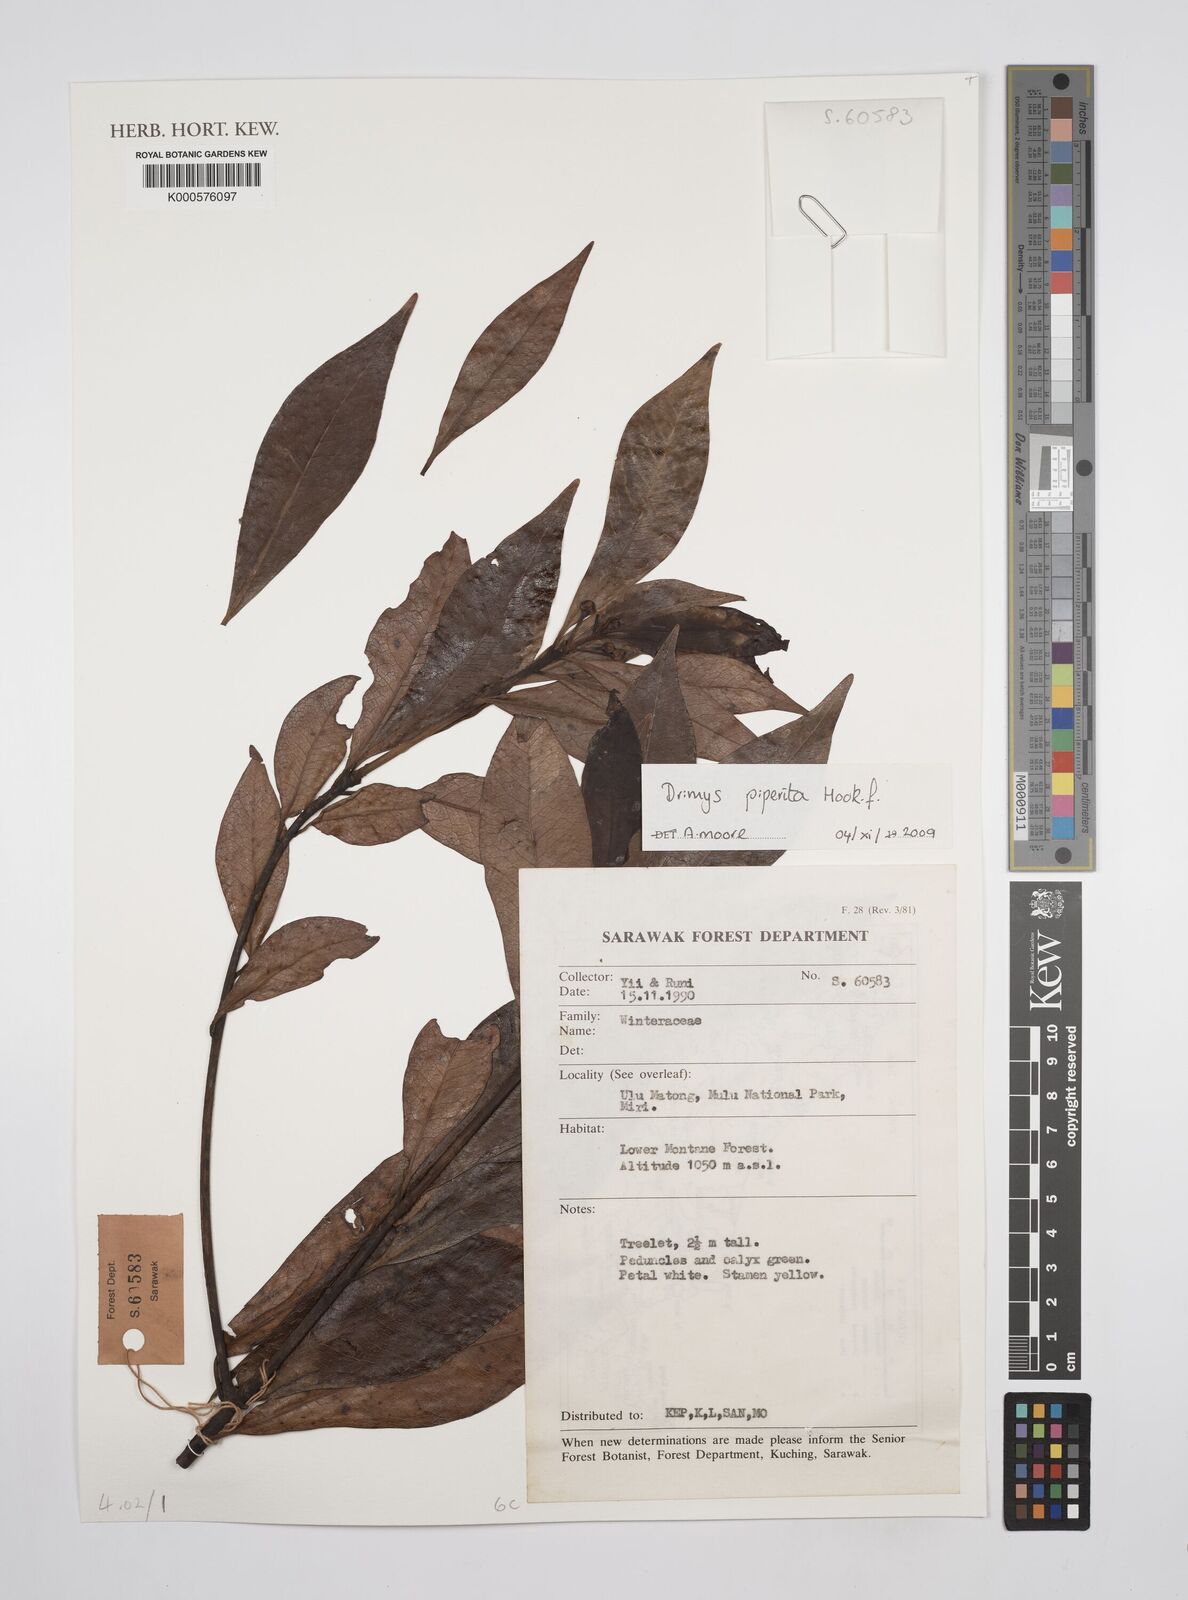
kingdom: Plantae
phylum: Tracheophyta
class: Magnoliopsida
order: Canellales
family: Winteraceae
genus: Drimys
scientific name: Drimys piperita
